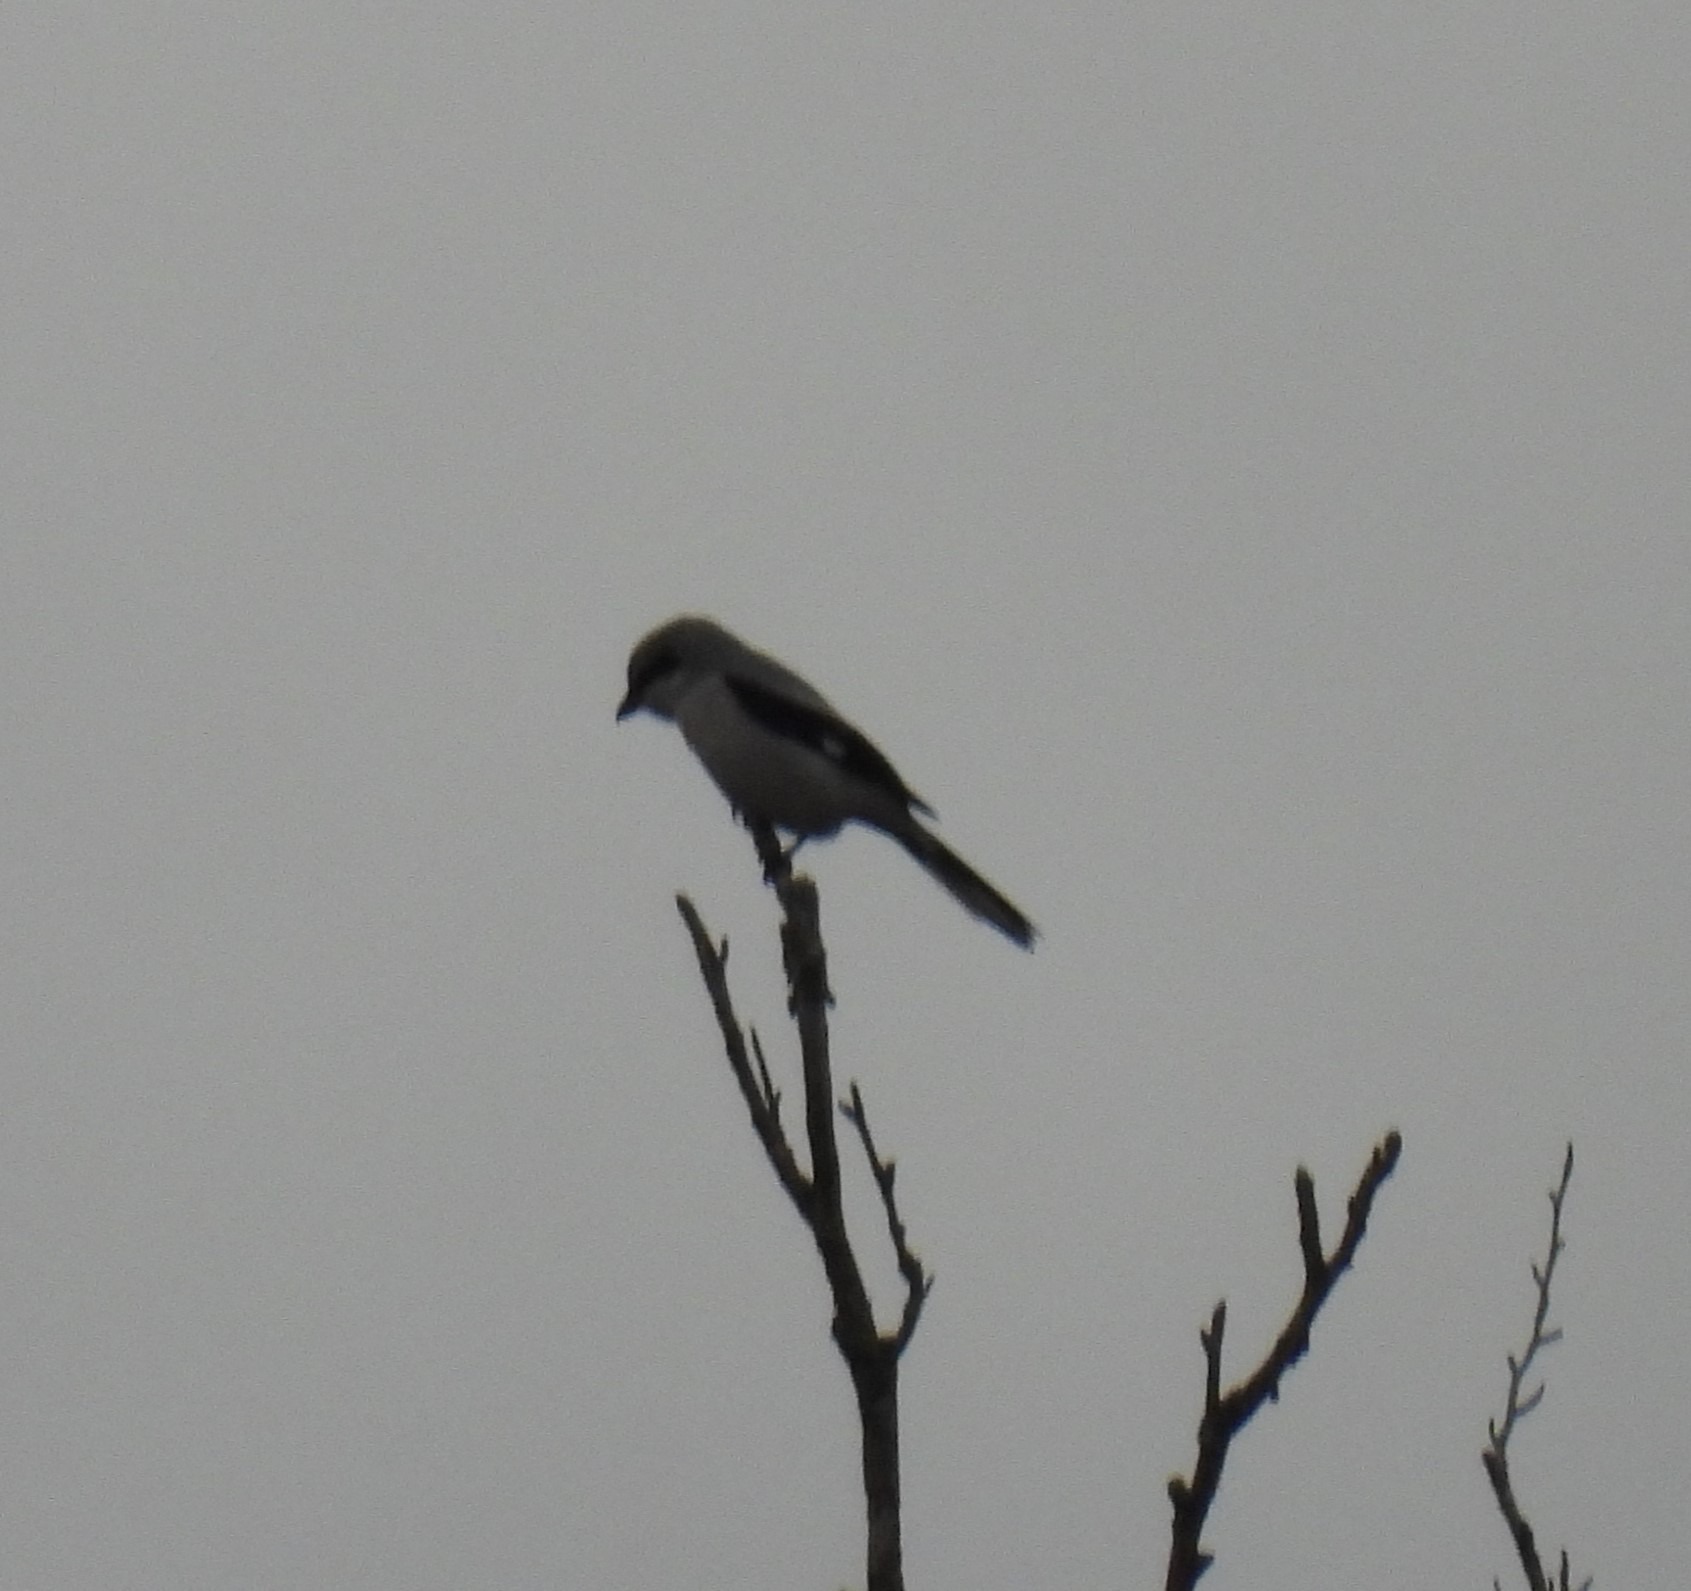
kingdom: Animalia
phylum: Chordata
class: Aves
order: Passeriformes
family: Laniidae
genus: Lanius
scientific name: Lanius excubitor
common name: Stor tornskade
